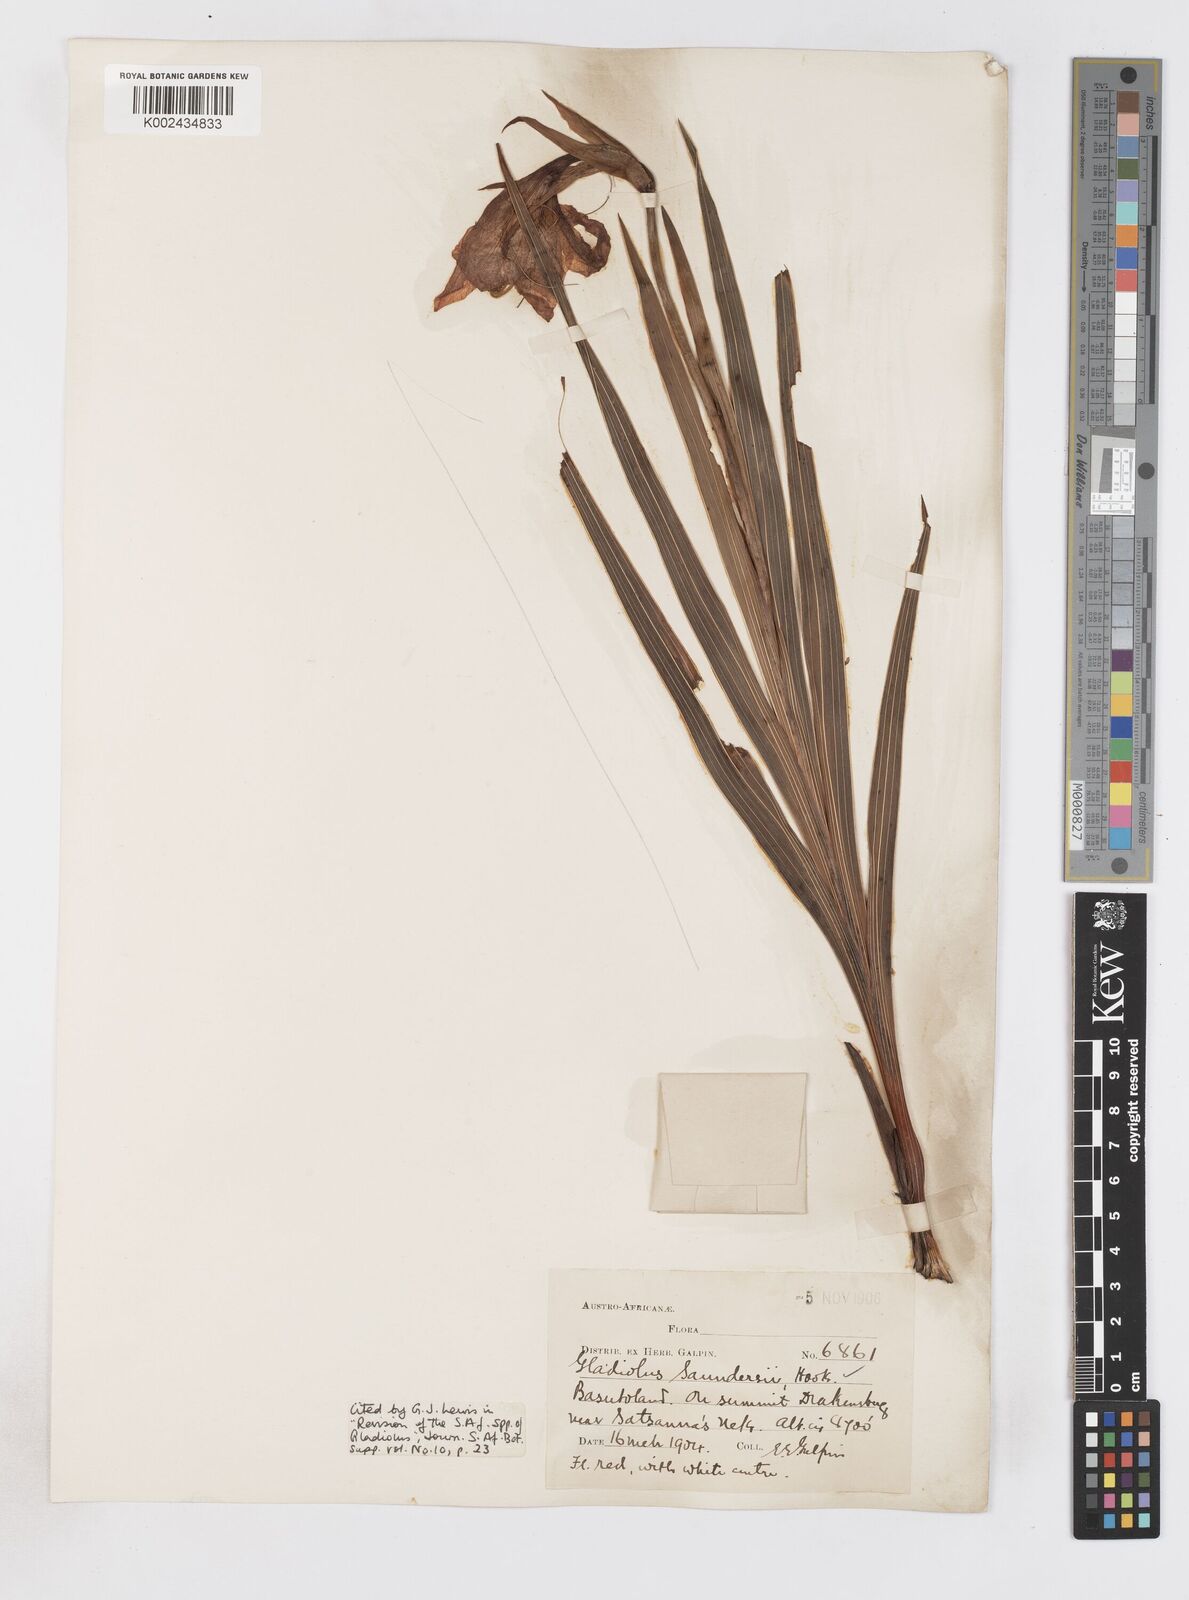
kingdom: Plantae
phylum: Tracheophyta
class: Liliopsida
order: Asparagales
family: Iridaceae
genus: Gladiolus
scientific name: Gladiolus saundersii
